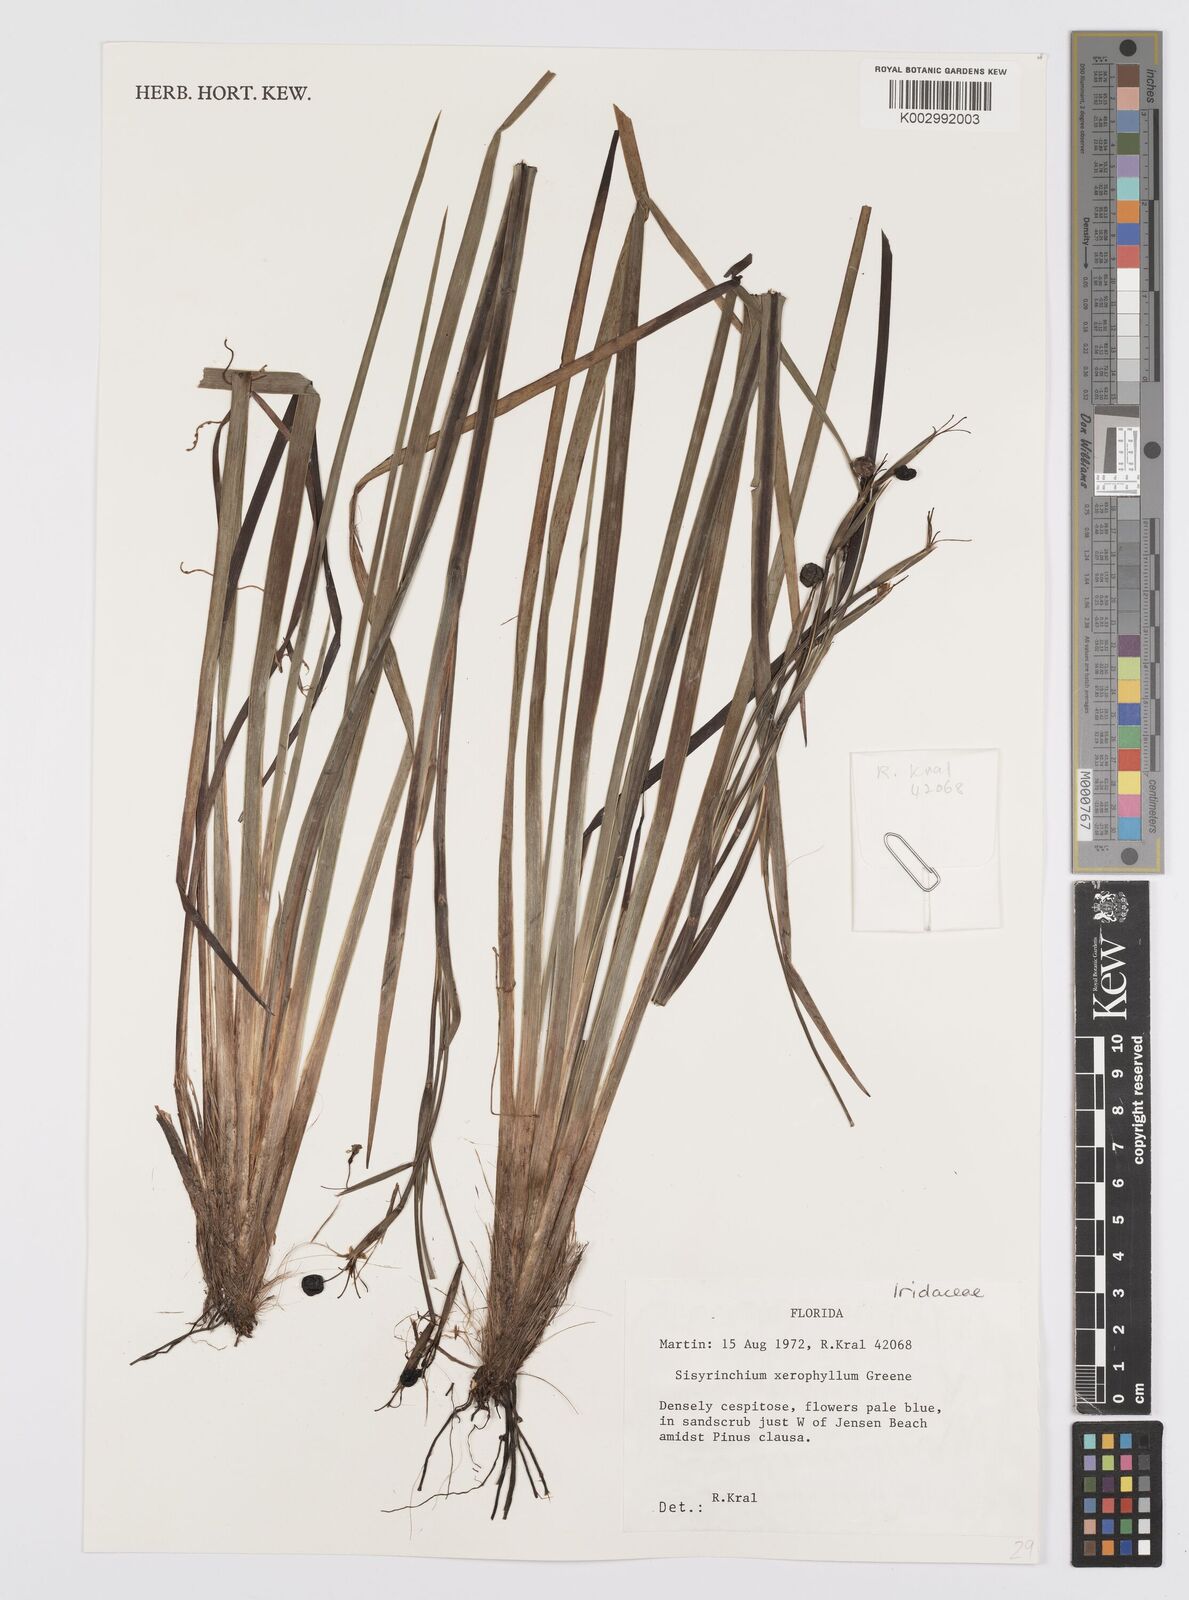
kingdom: Plantae
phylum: Tracheophyta
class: Liliopsida
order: Asparagales
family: Iridaceae
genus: Sisyrinchium
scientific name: Sisyrinchium xerophyllum
